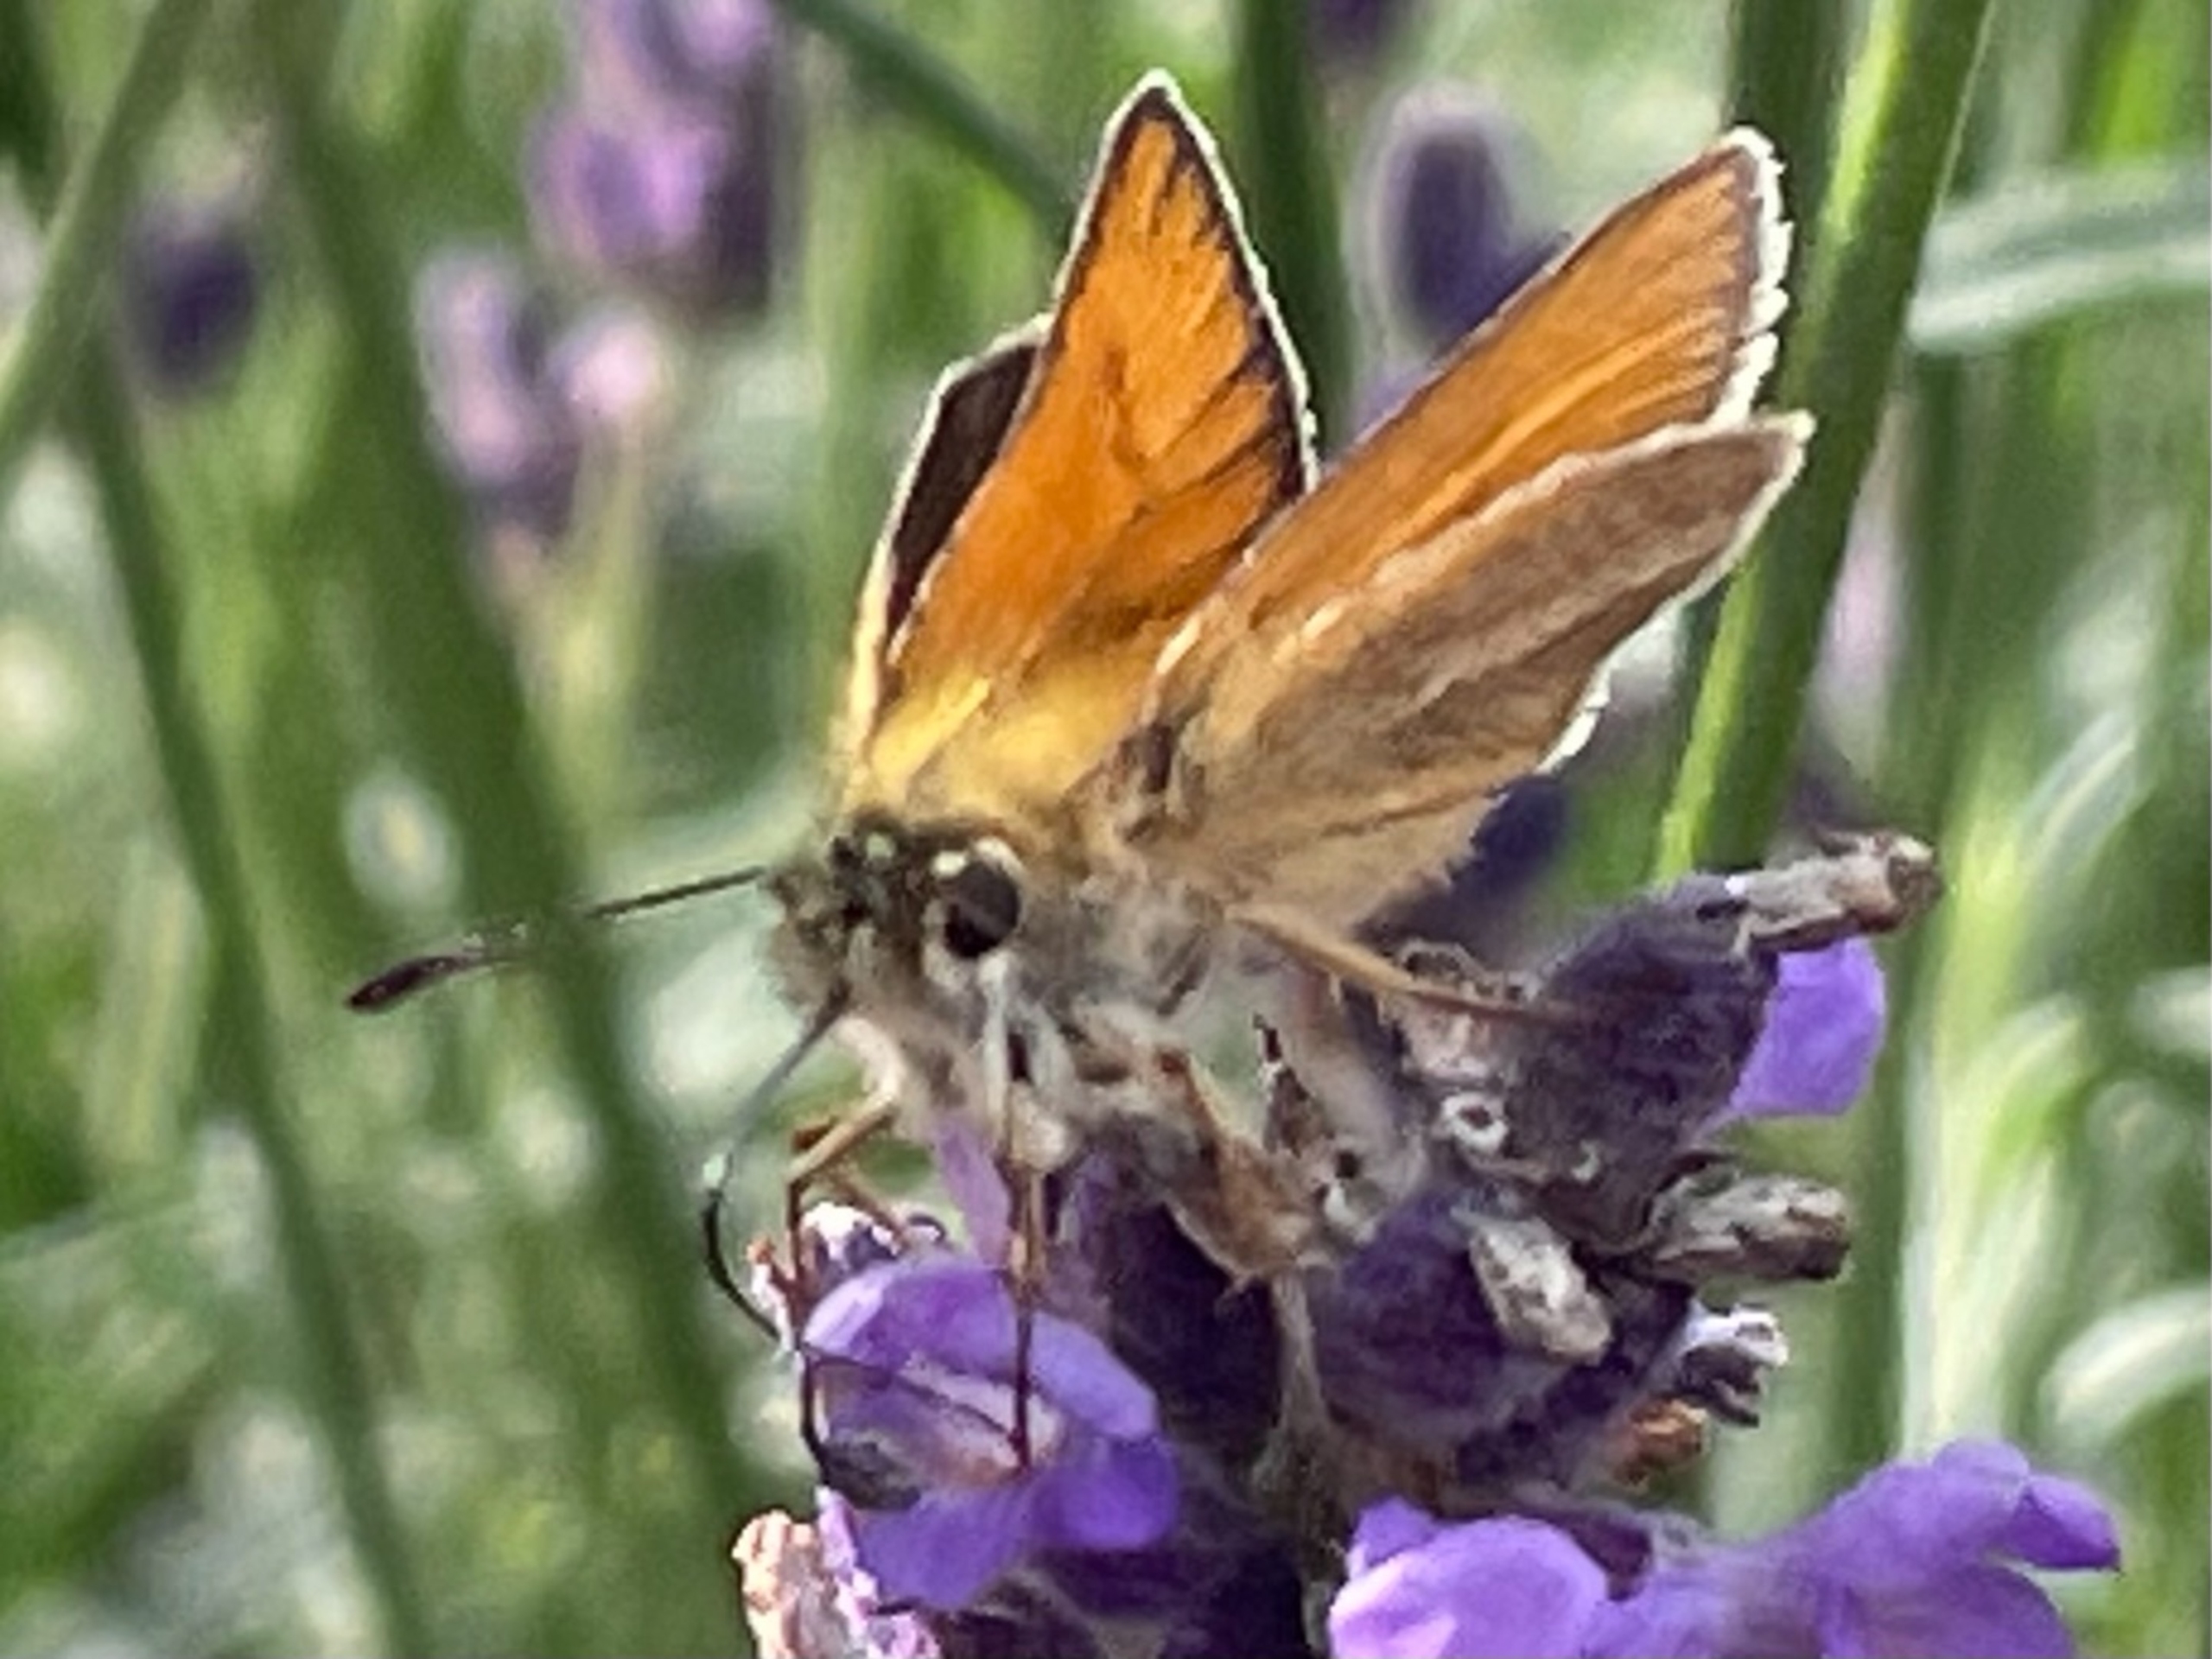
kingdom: Animalia
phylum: Arthropoda
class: Insecta
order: Lepidoptera
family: Hesperiidae
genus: Thymelicus
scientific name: Thymelicus lineola
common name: Stregbredpande
